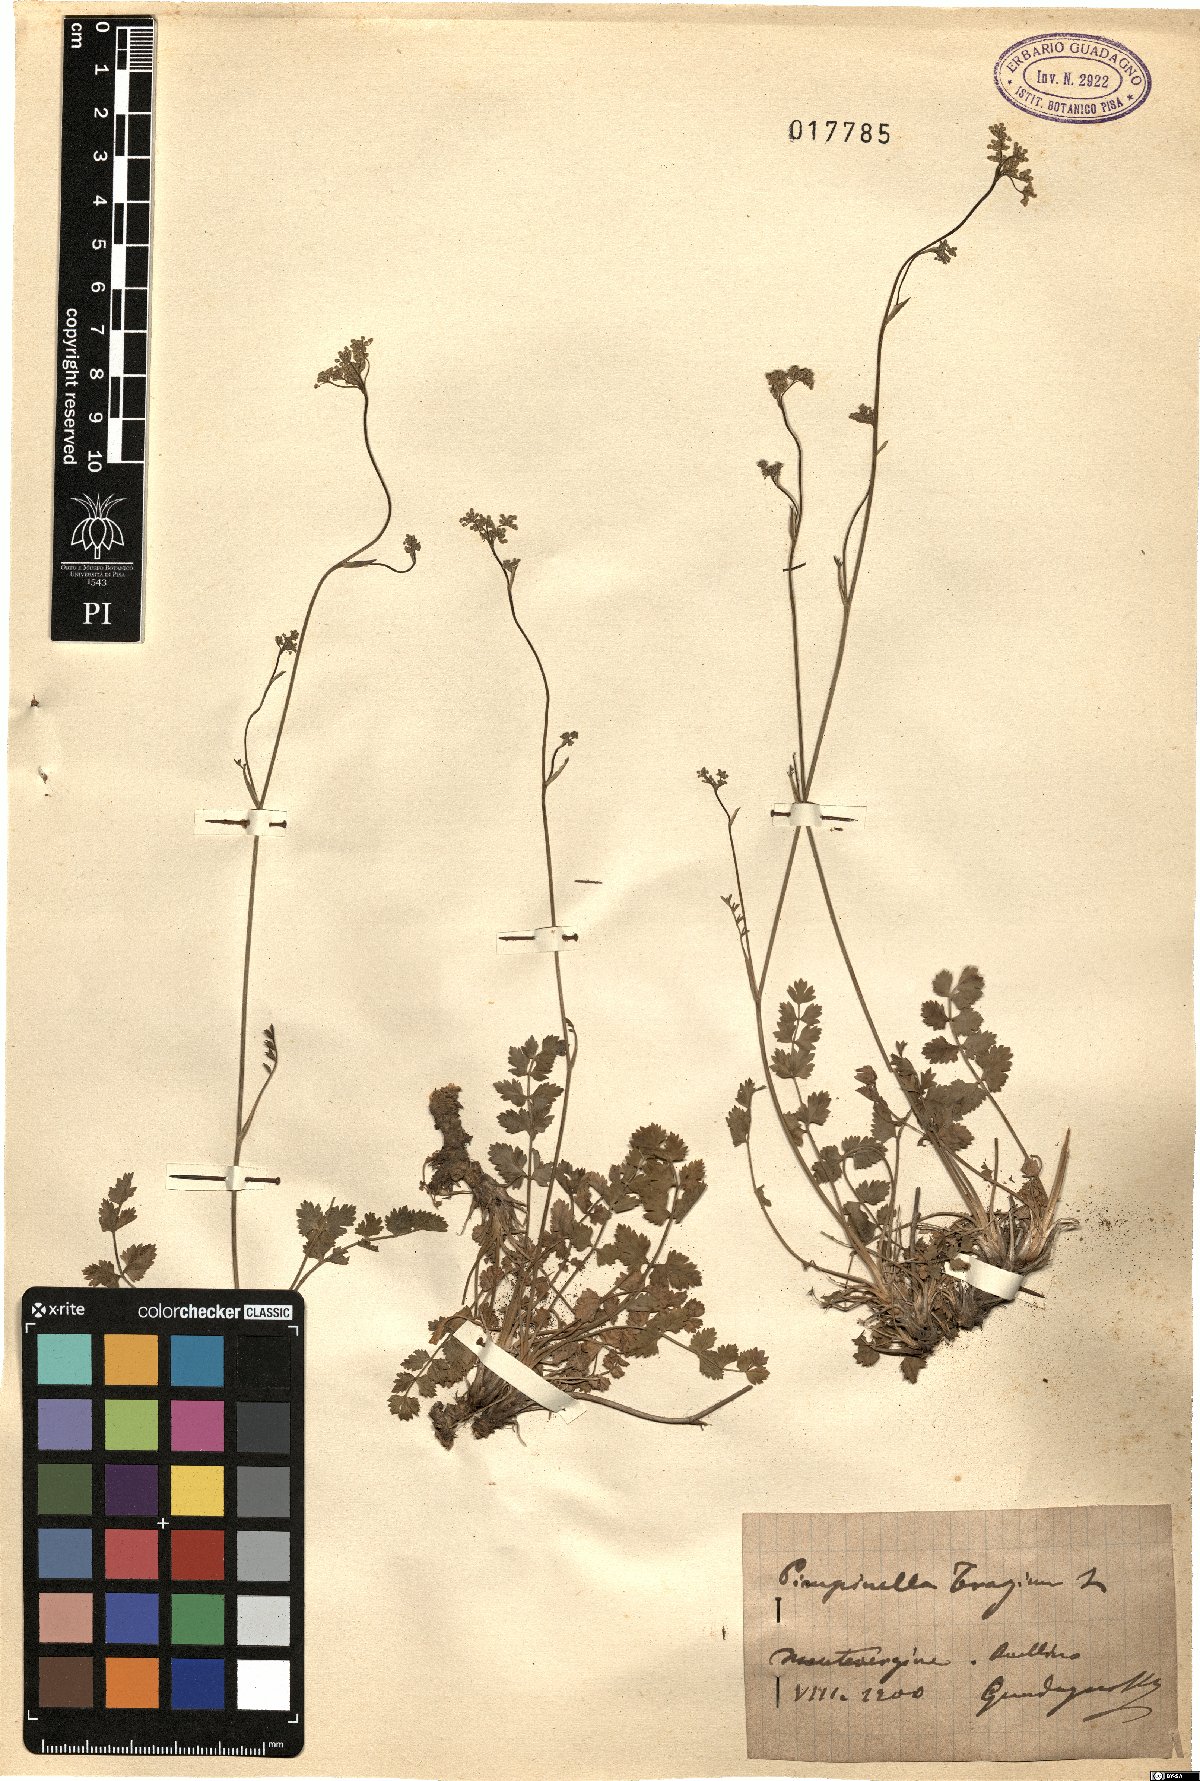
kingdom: Plantae
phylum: Tracheophyta
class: Magnoliopsida
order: Apiales
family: Apiaceae
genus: Pimpinella
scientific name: Pimpinella tragium
